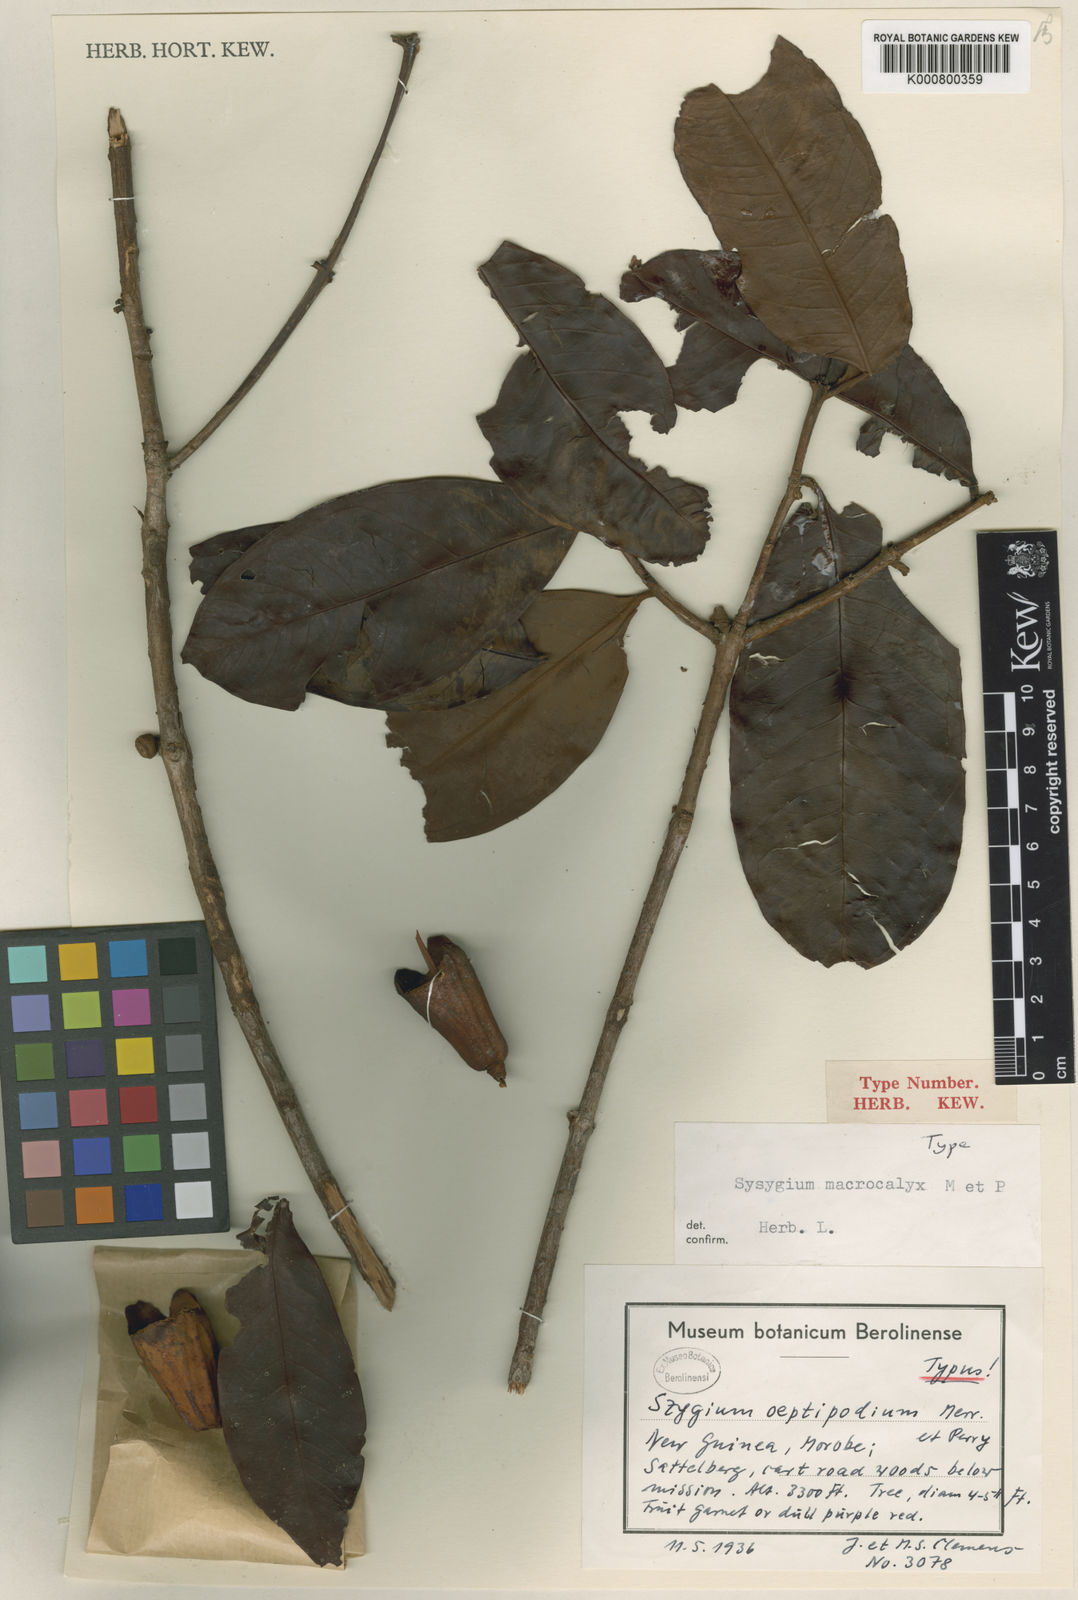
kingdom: Plantae
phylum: Tracheophyta
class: Magnoliopsida
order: Myrtales
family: Myrtaceae
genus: Syzygium
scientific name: Syzygium macrocalyx
